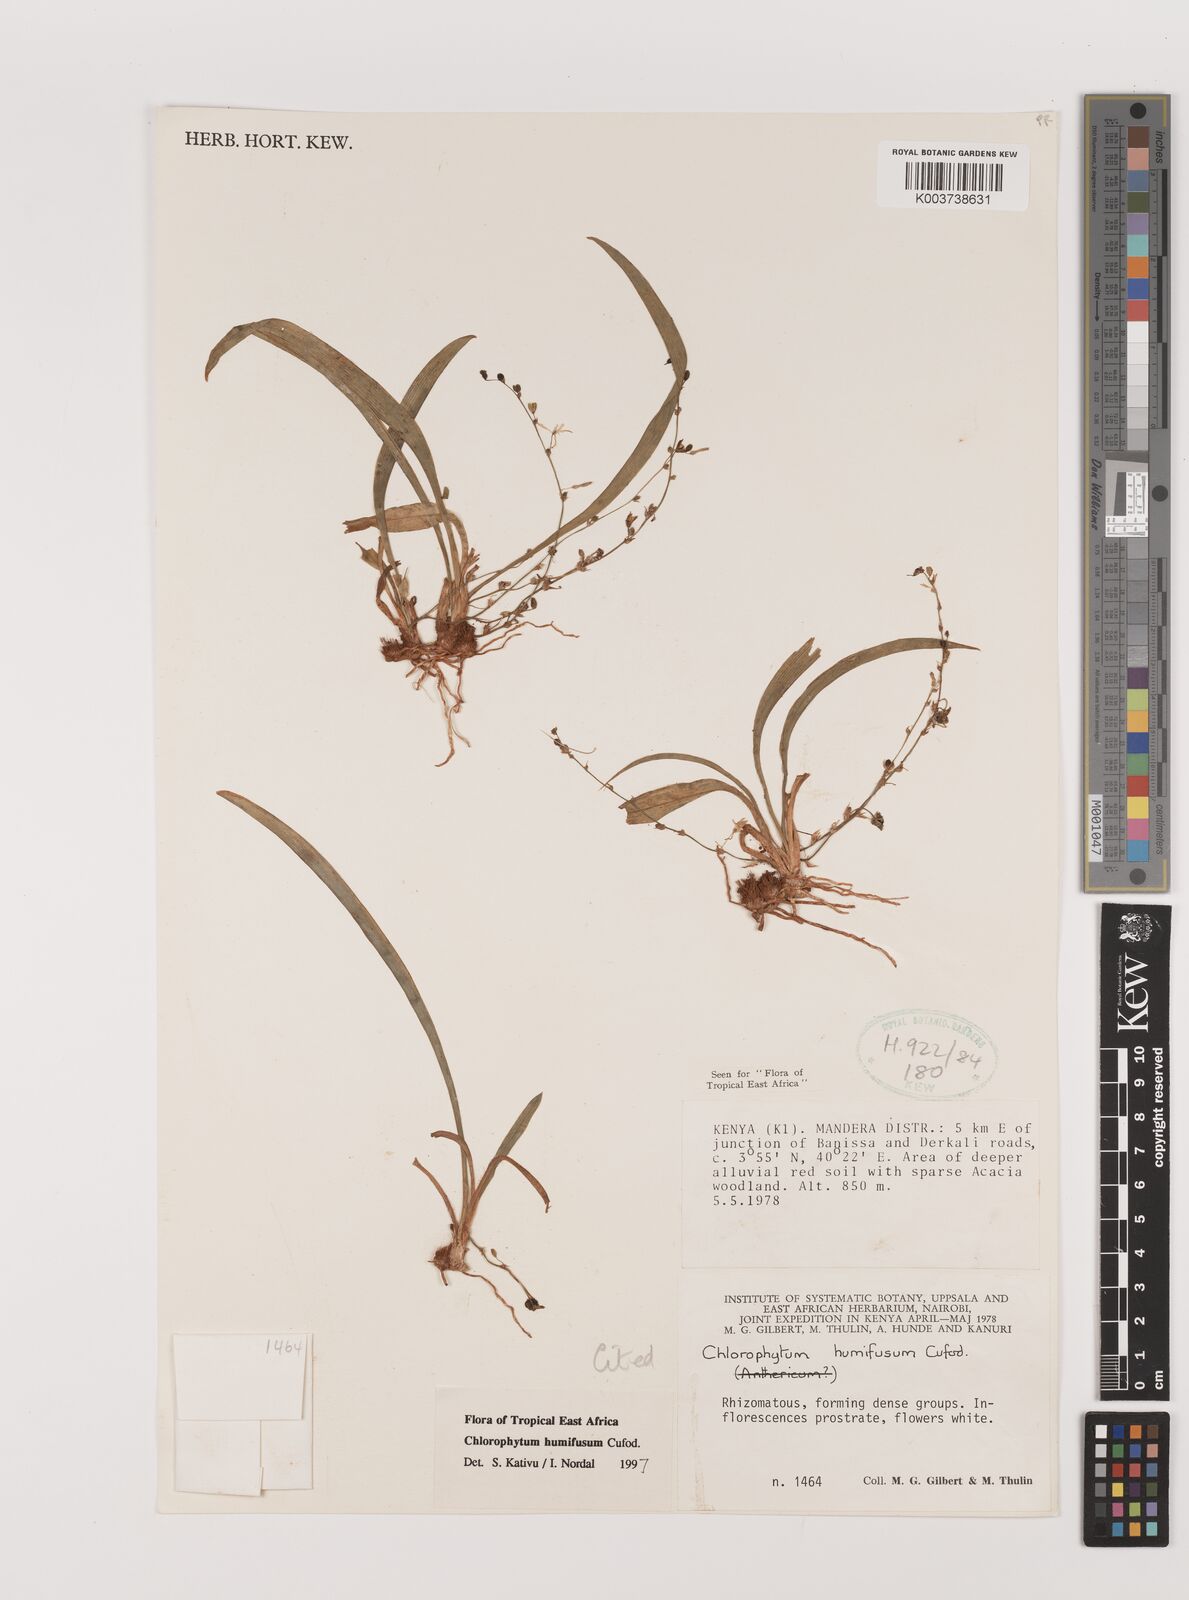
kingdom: Plantae
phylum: Tracheophyta
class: Liliopsida
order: Asparagales
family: Asparagaceae
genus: Chlorophytum
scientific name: Chlorophytum humifusum
